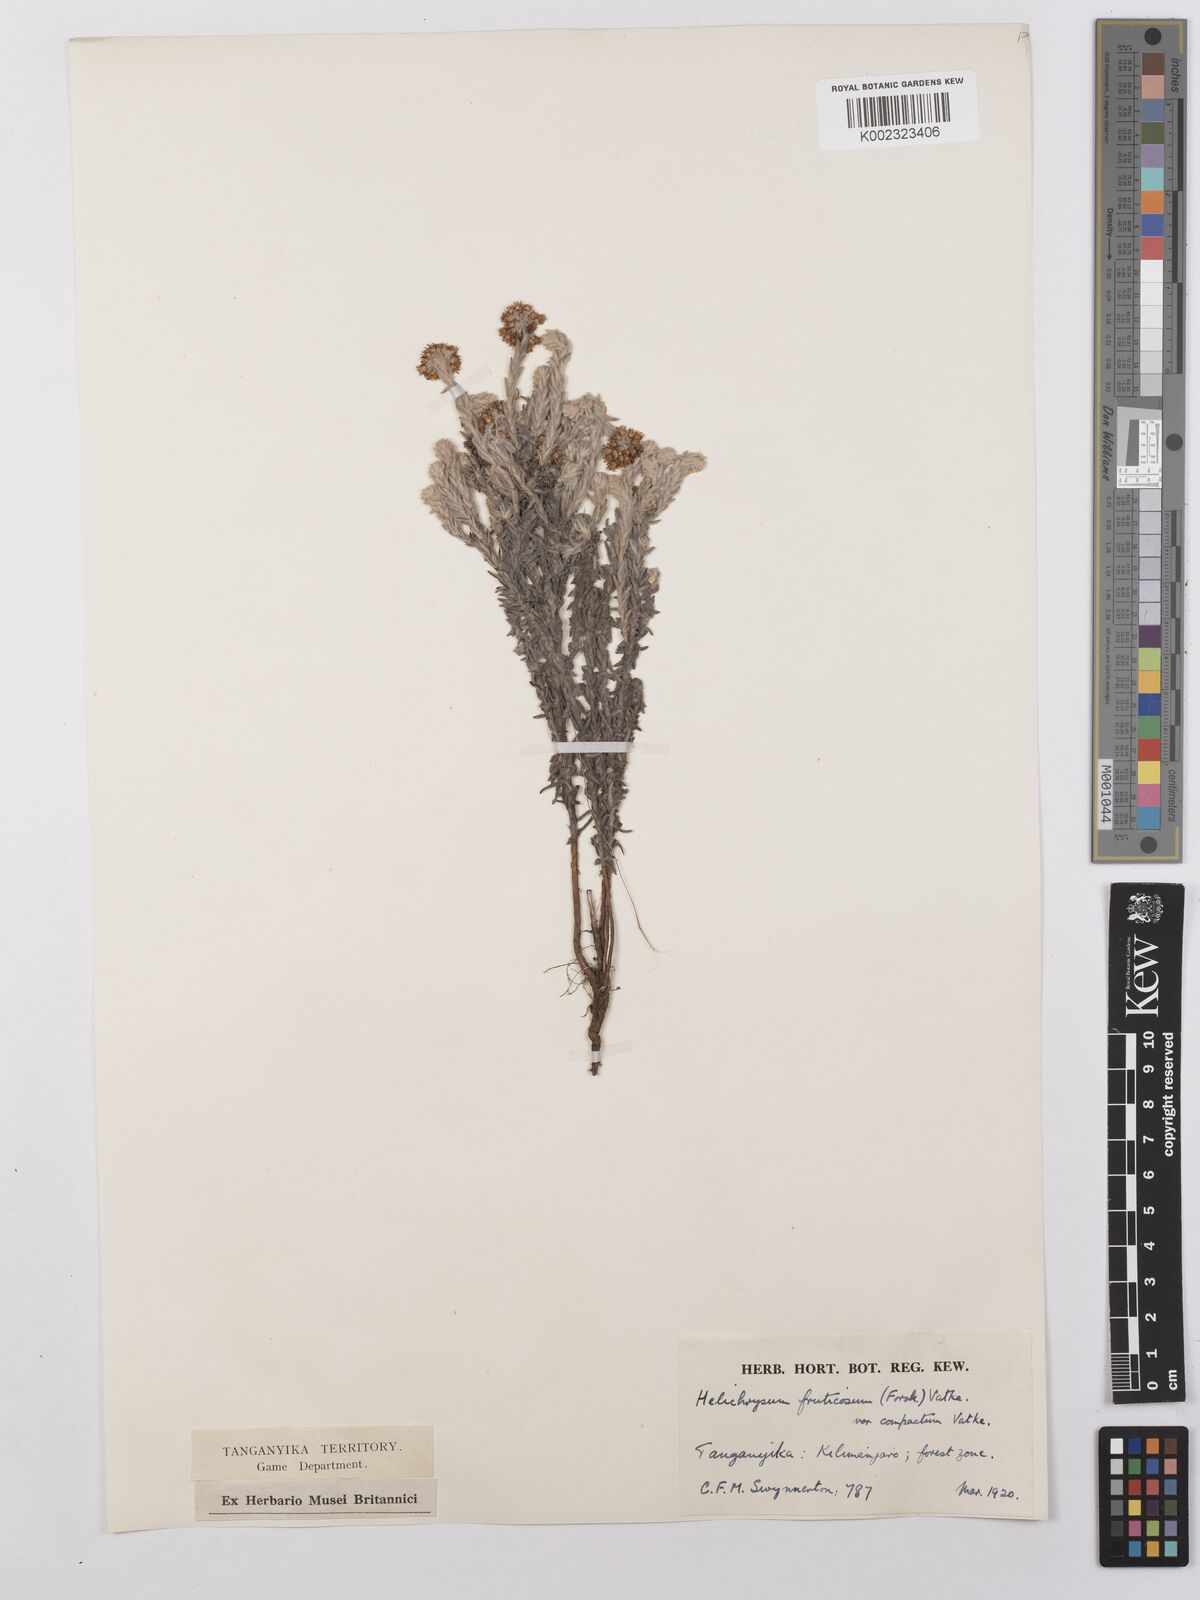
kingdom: Plantae
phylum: Tracheophyta
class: Magnoliopsida
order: Asterales
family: Asteraceae
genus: Helichrysum
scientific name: Helichrysum forskahlii
